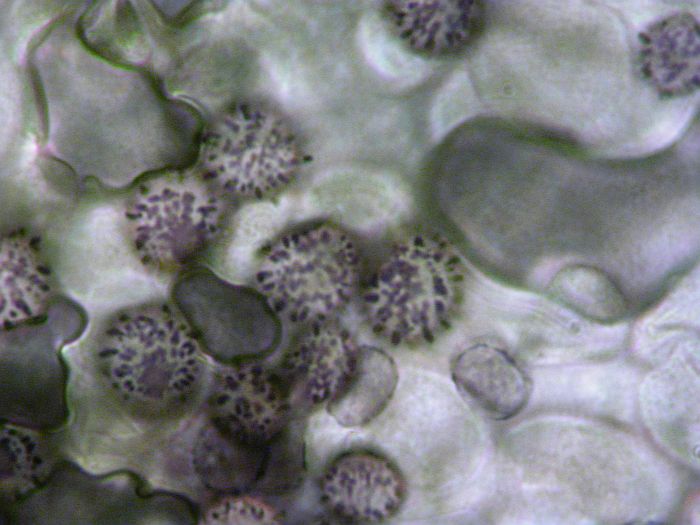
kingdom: Fungi
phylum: Basidiomycota
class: Agaricomycetes
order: Russulales
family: Russulaceae
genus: Russula
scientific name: Russula romellii
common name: romells skørhat
